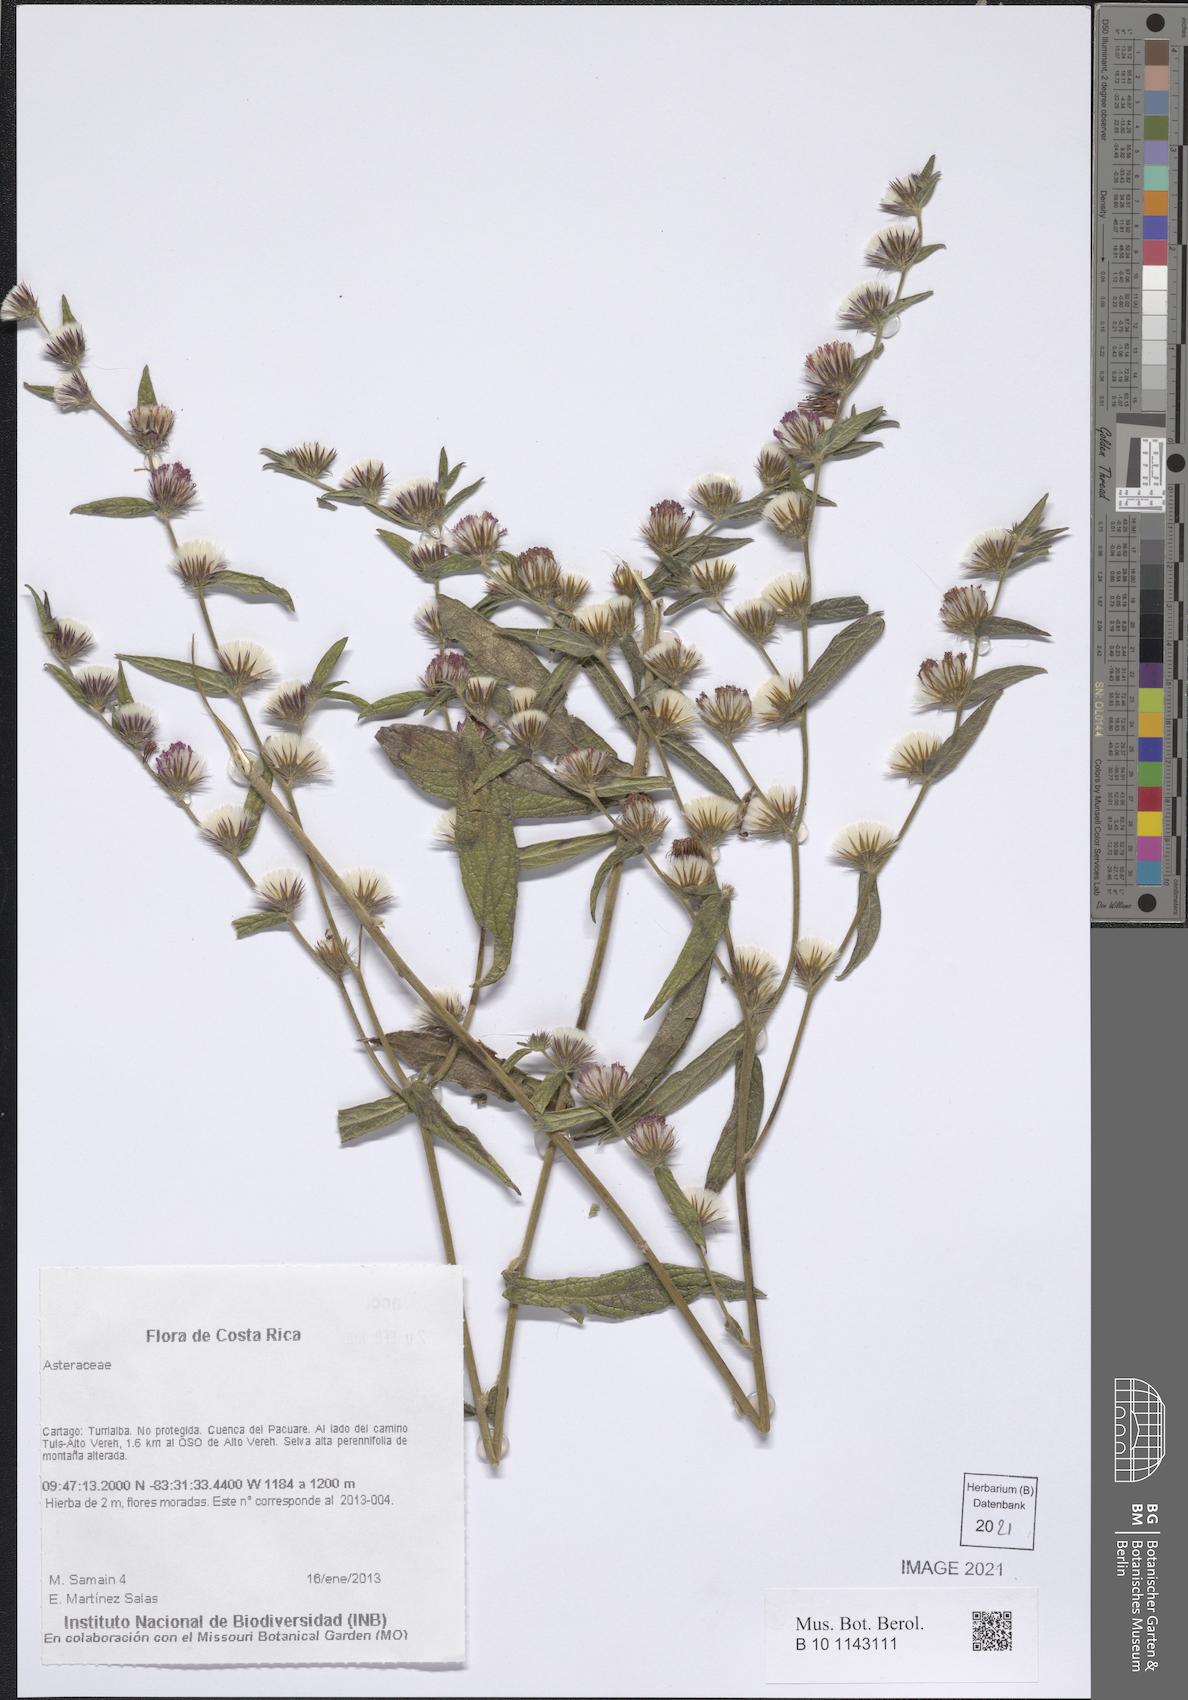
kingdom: Plantae
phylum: Tracheophyta
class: Magnoliopsida
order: Asterales
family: Asteraceae
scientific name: Asteraceae
